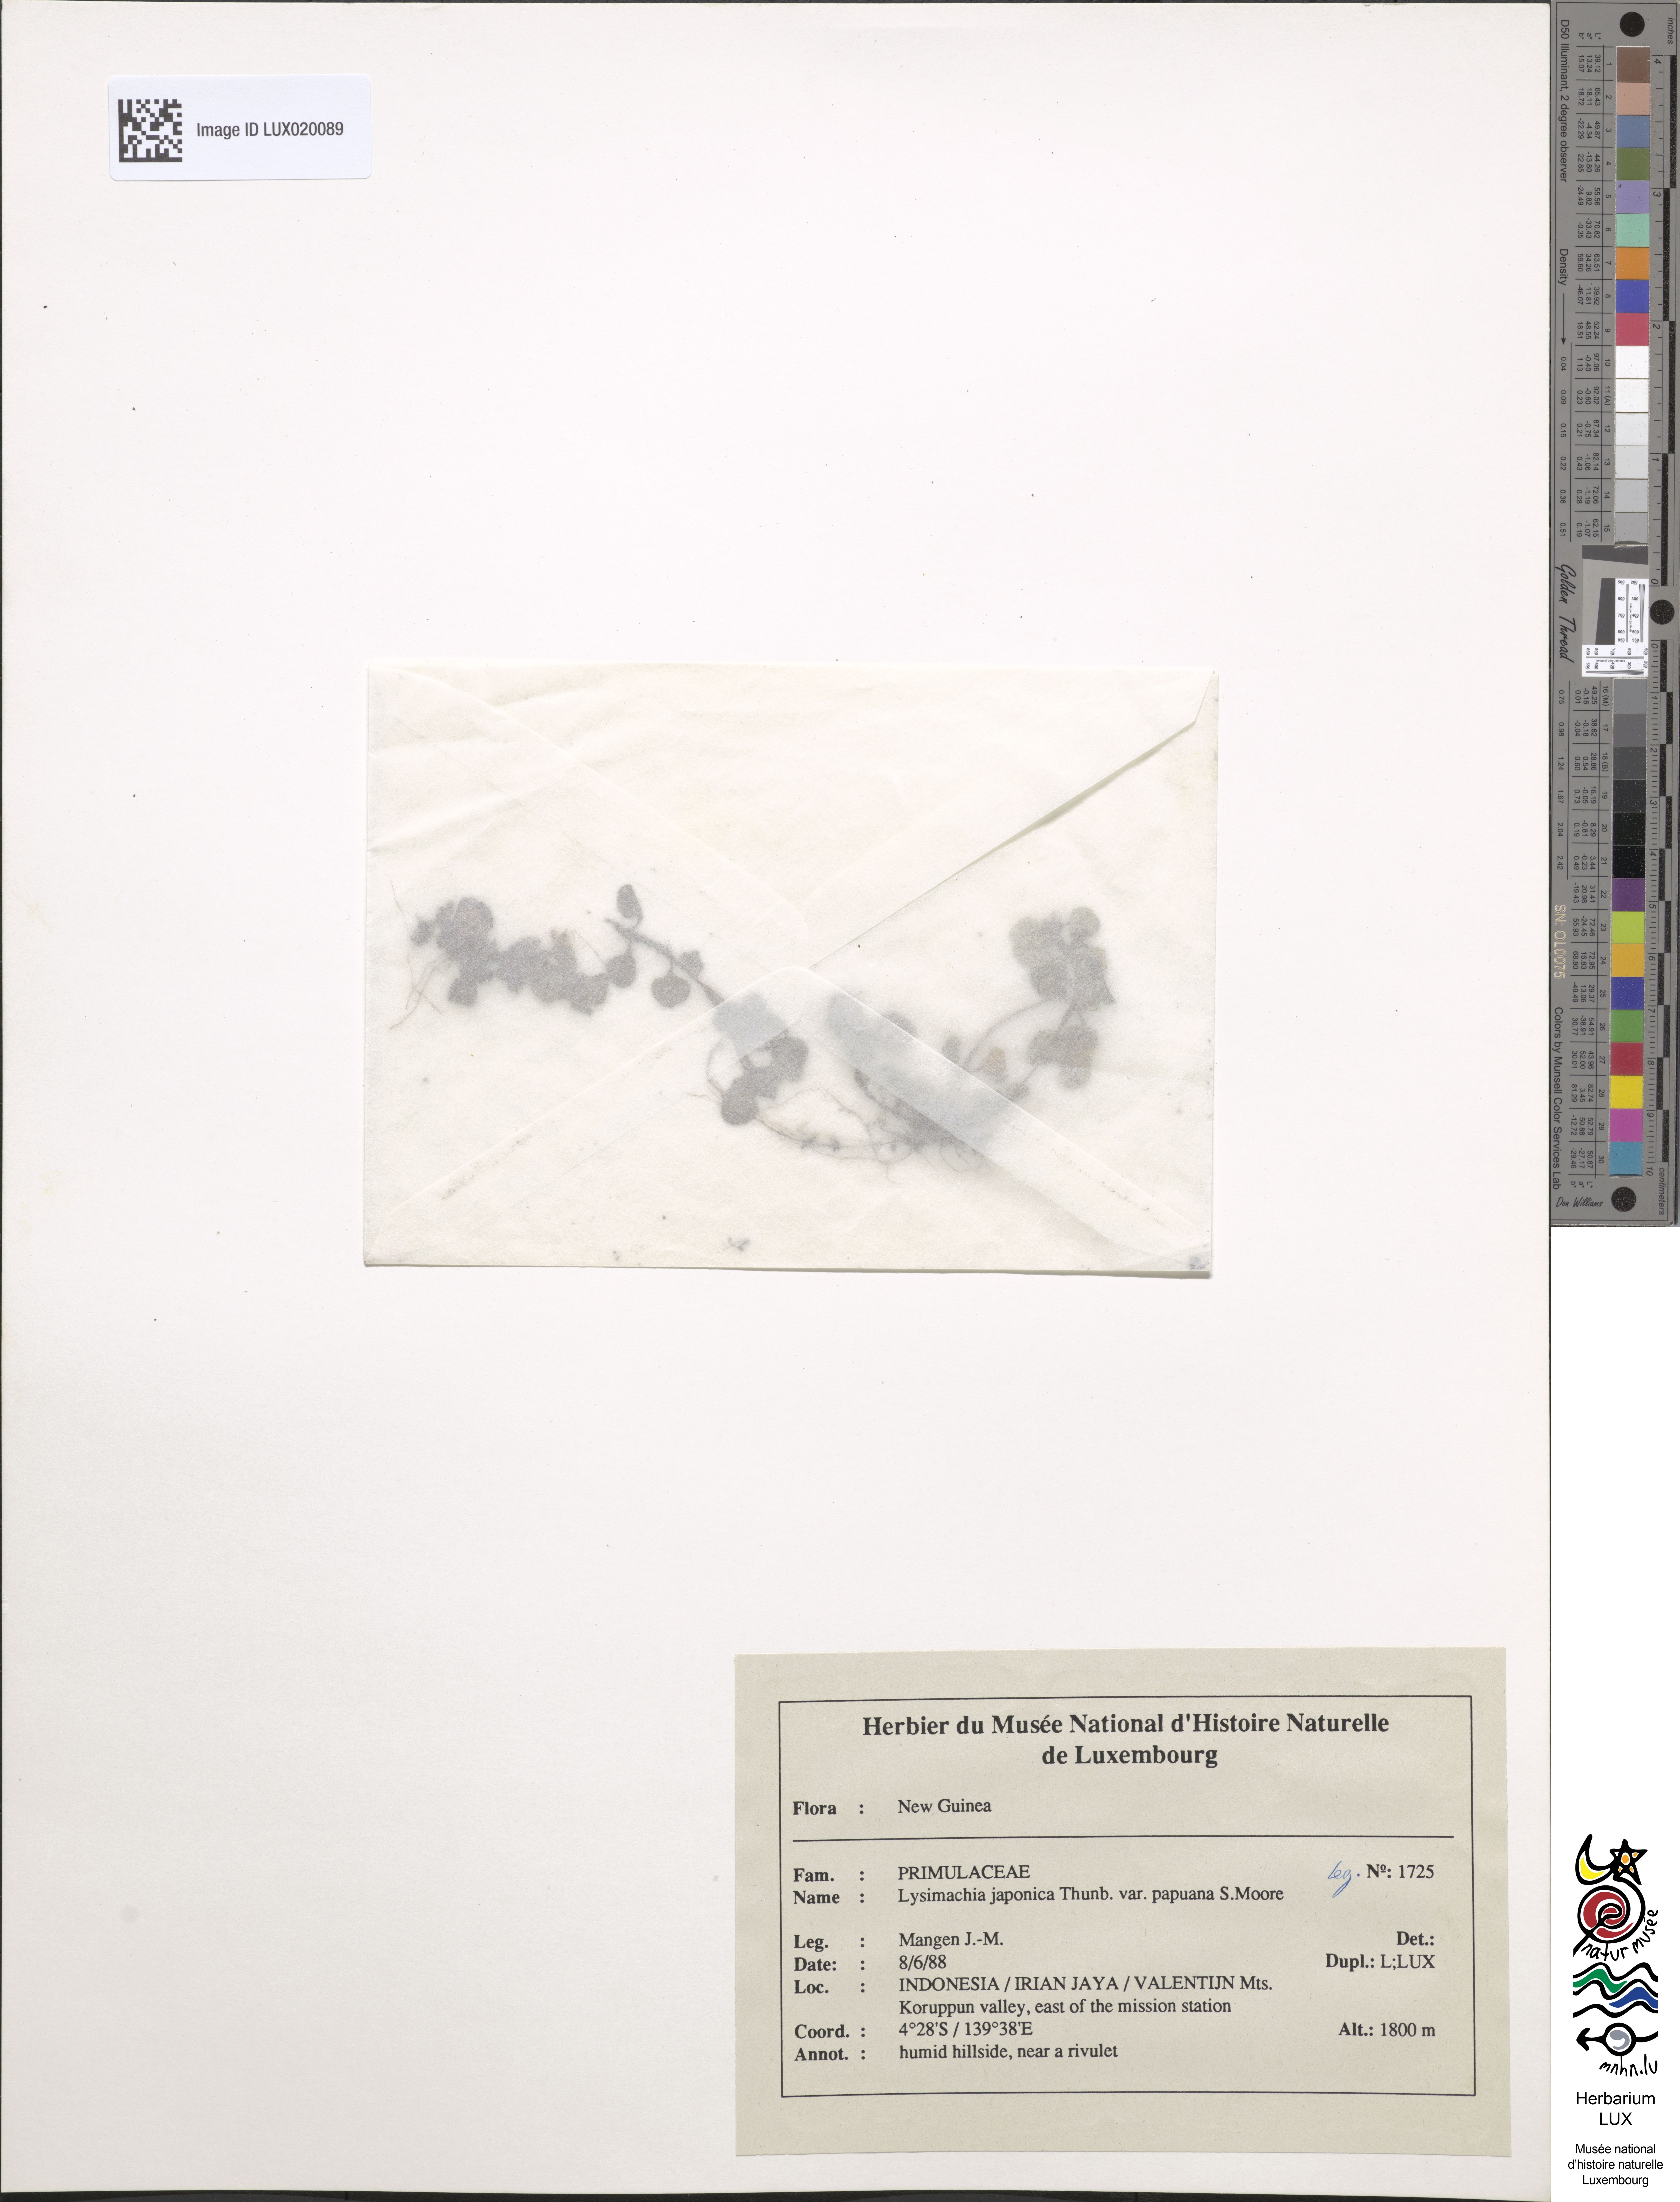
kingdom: Plantae
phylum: Tracheophyta
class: Magnoliopsida
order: Ericales
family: Primulaceae
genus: Lysimachia
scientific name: Lysimachia japonica
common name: Japanese yellow loosestrife
